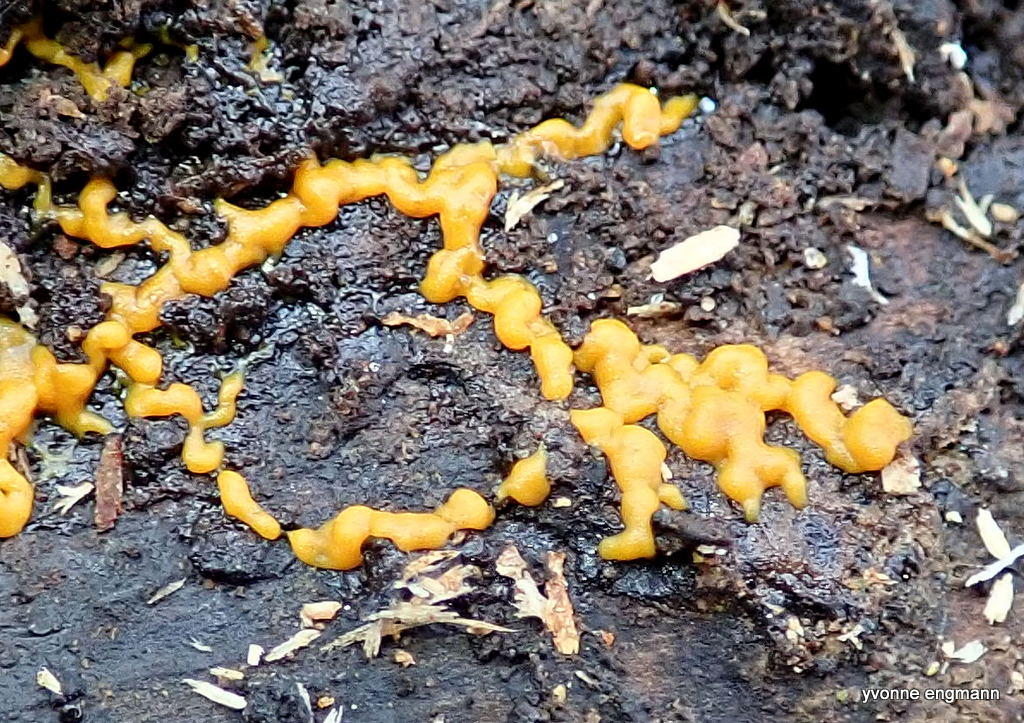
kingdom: Protozoa
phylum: Mycetozoa
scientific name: Mycetozoa
